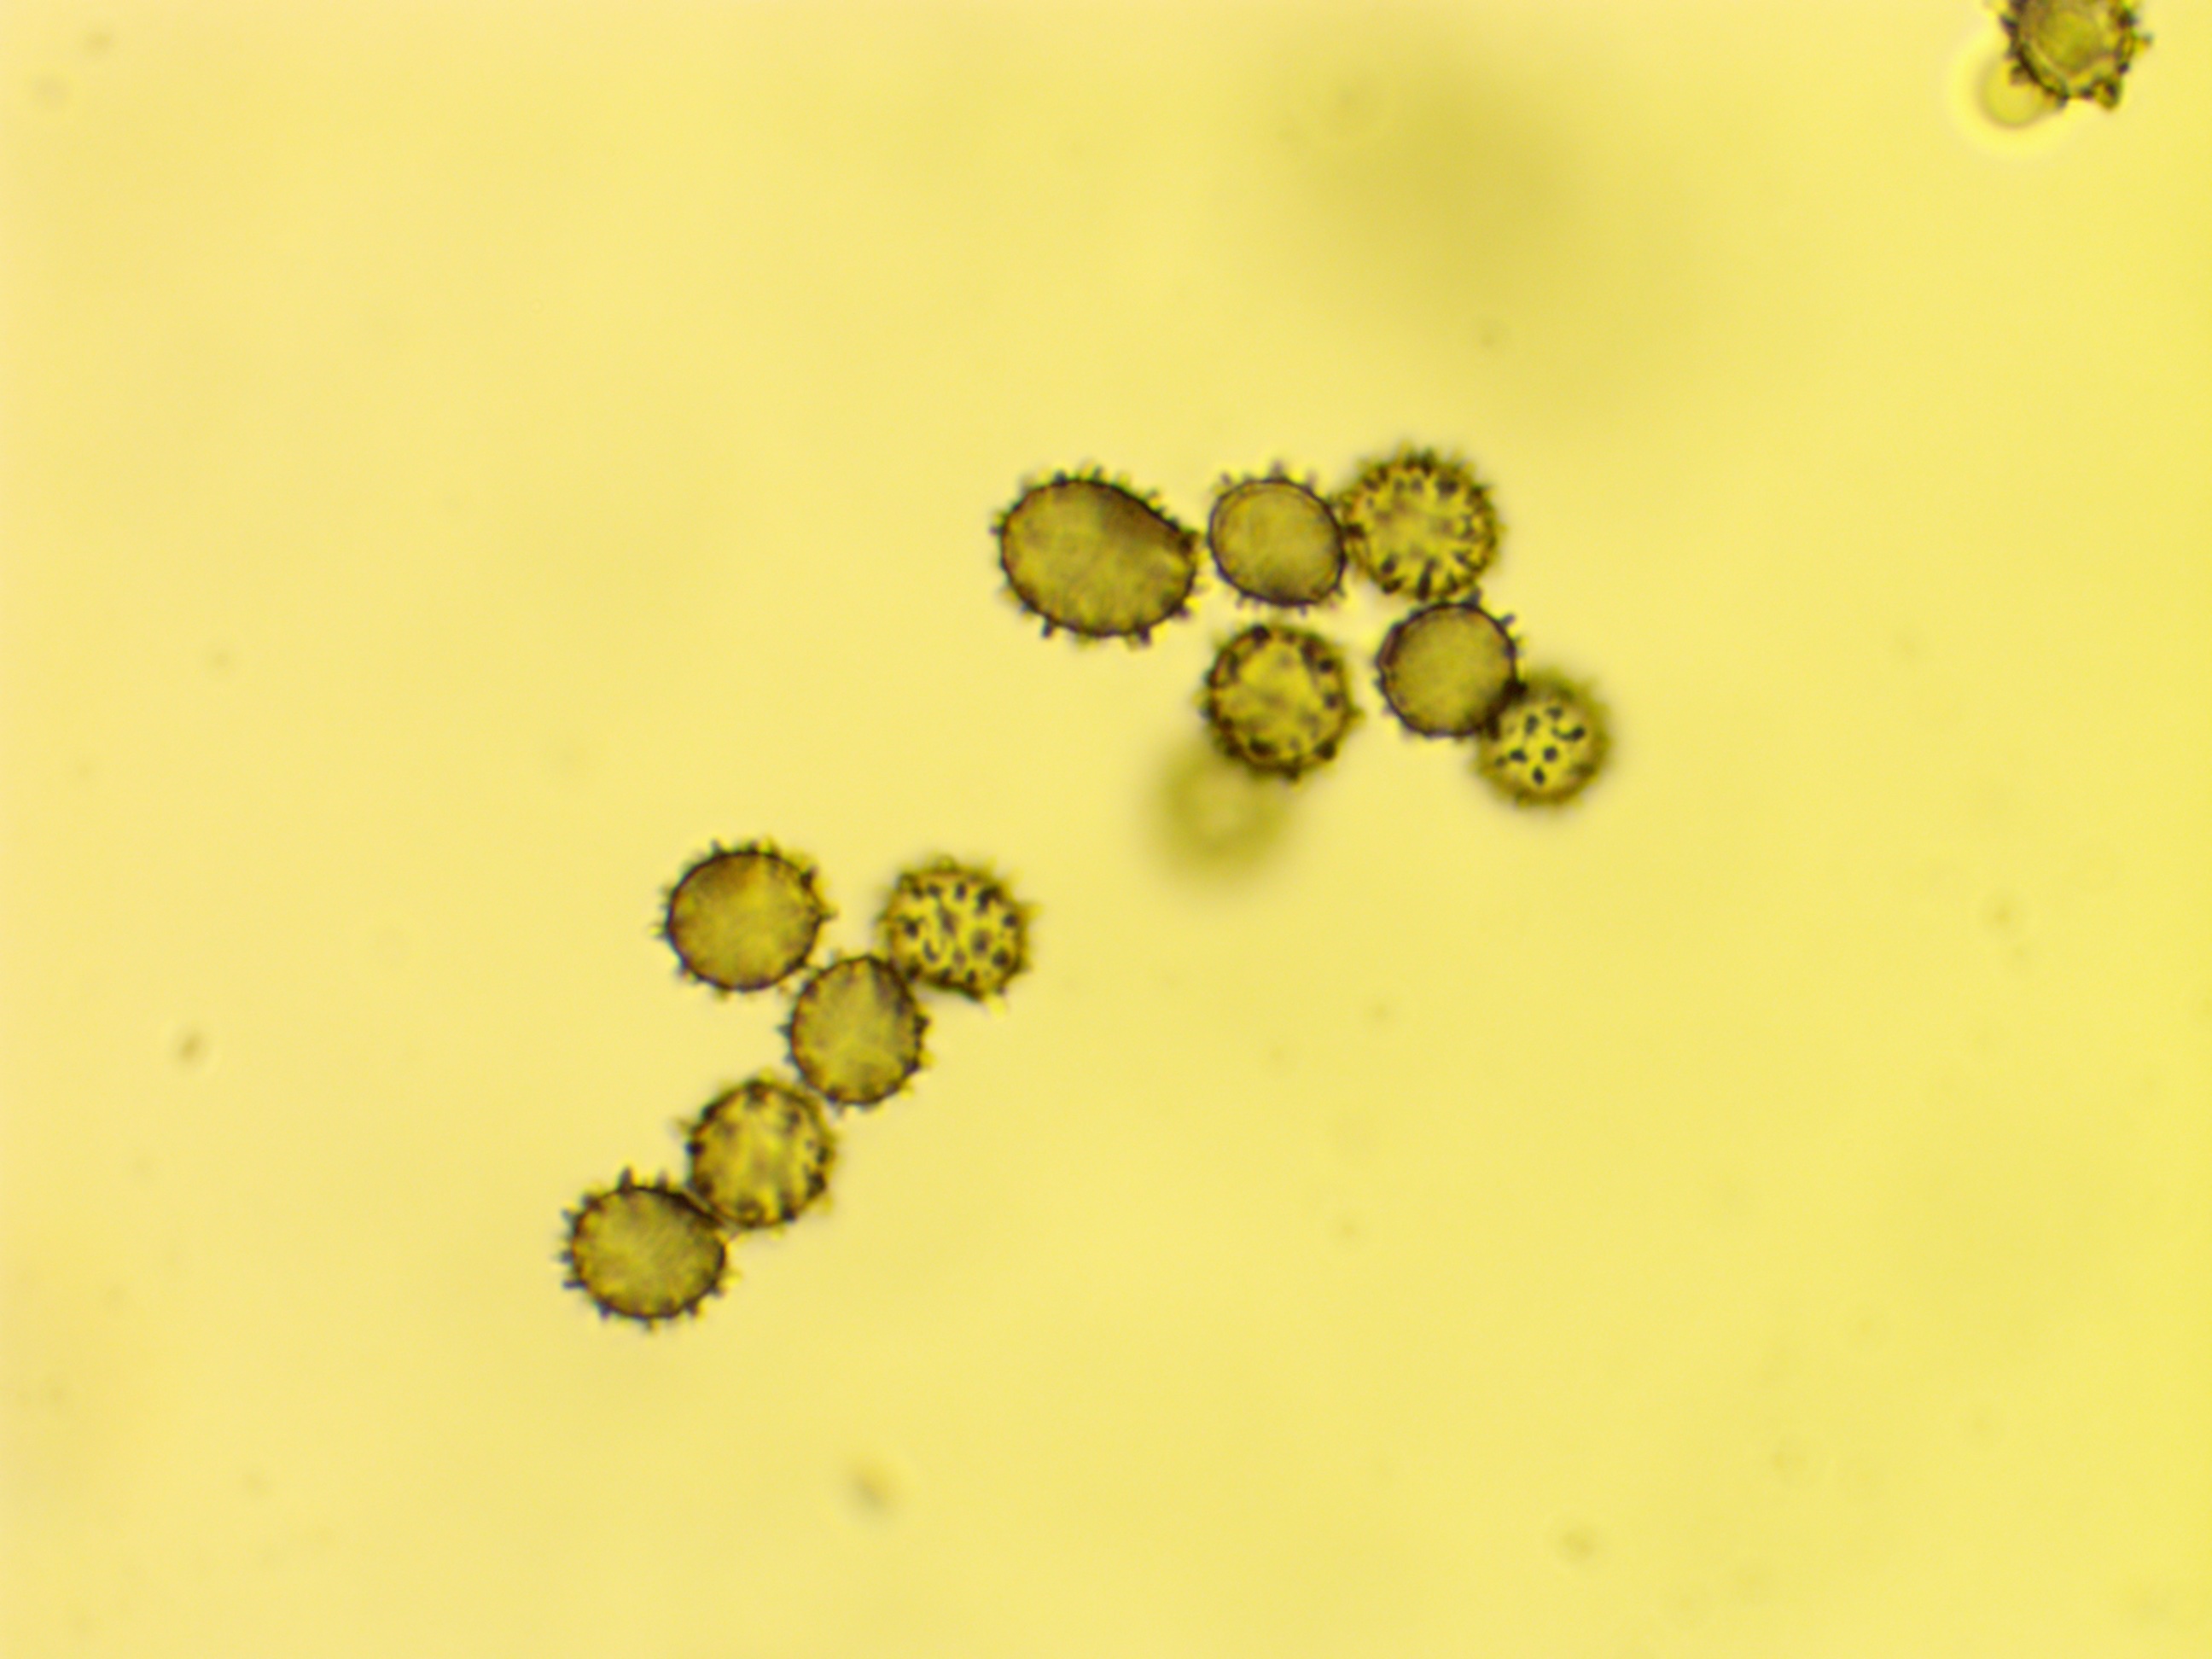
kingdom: Fungi
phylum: Basidiomycota
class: Agaricomycetes
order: Russulales
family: Russulaceae
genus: Russula
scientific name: Russula queletii
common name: Quélets skørhat
